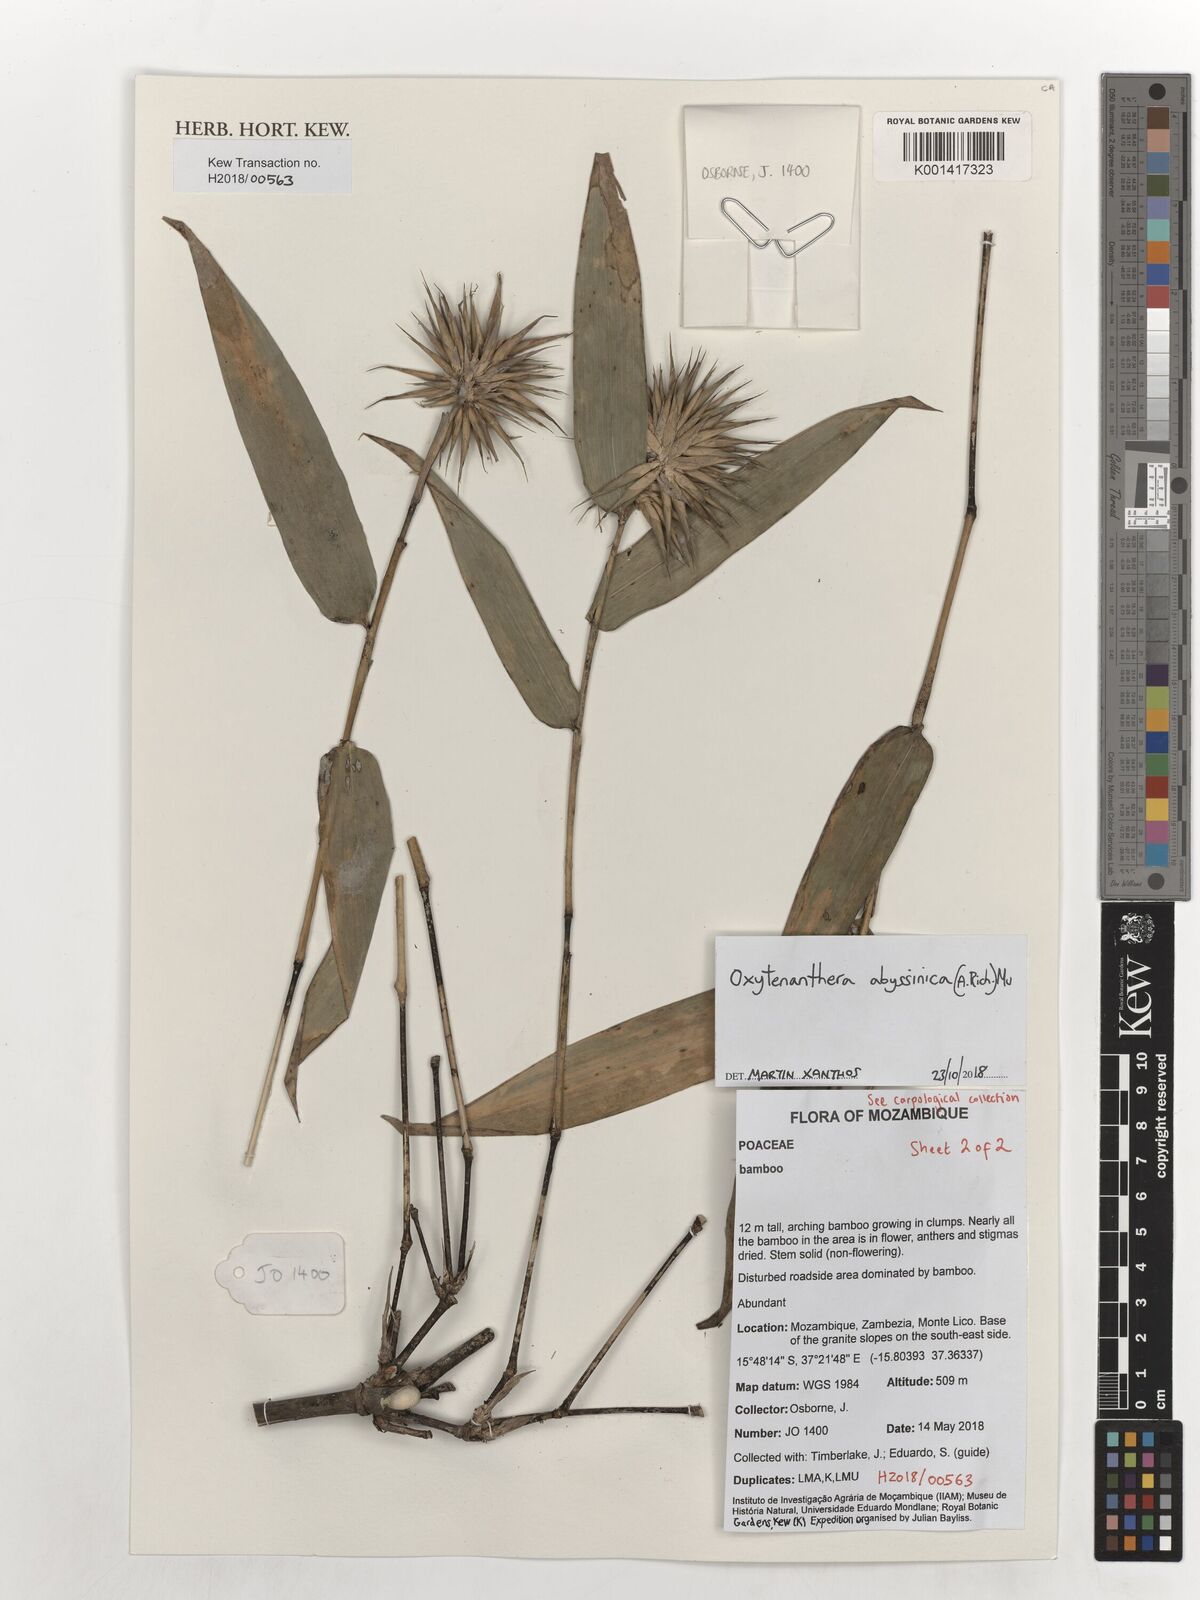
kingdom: Plantae
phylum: Tracheophyta
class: Liliopsida
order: Poales
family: Poaceae
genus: Oxytenanthera
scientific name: Oxytenanthera abyssinica
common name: Wine bamboo
